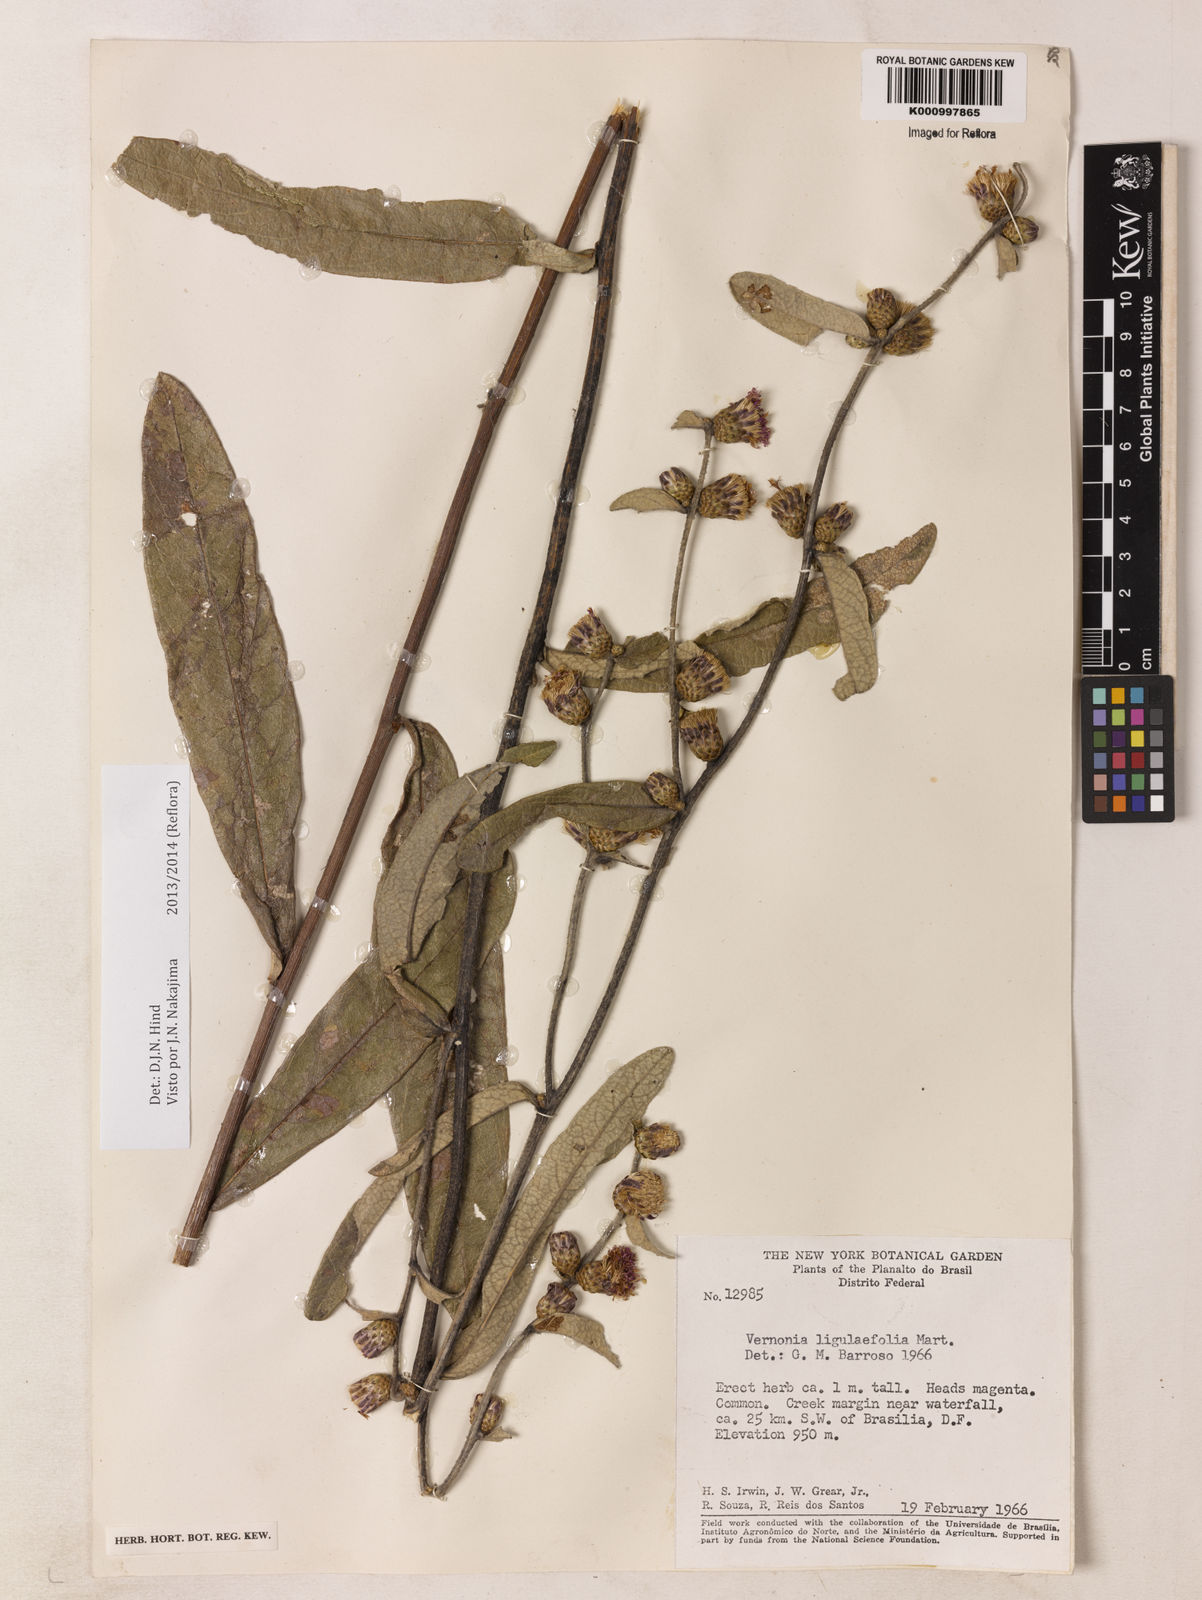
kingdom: Plantae
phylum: Tracheophyta
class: Magnoliopsida
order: Asterales
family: Asteraceae
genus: Lessingianthus
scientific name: Lessingianthus ligulifolius
